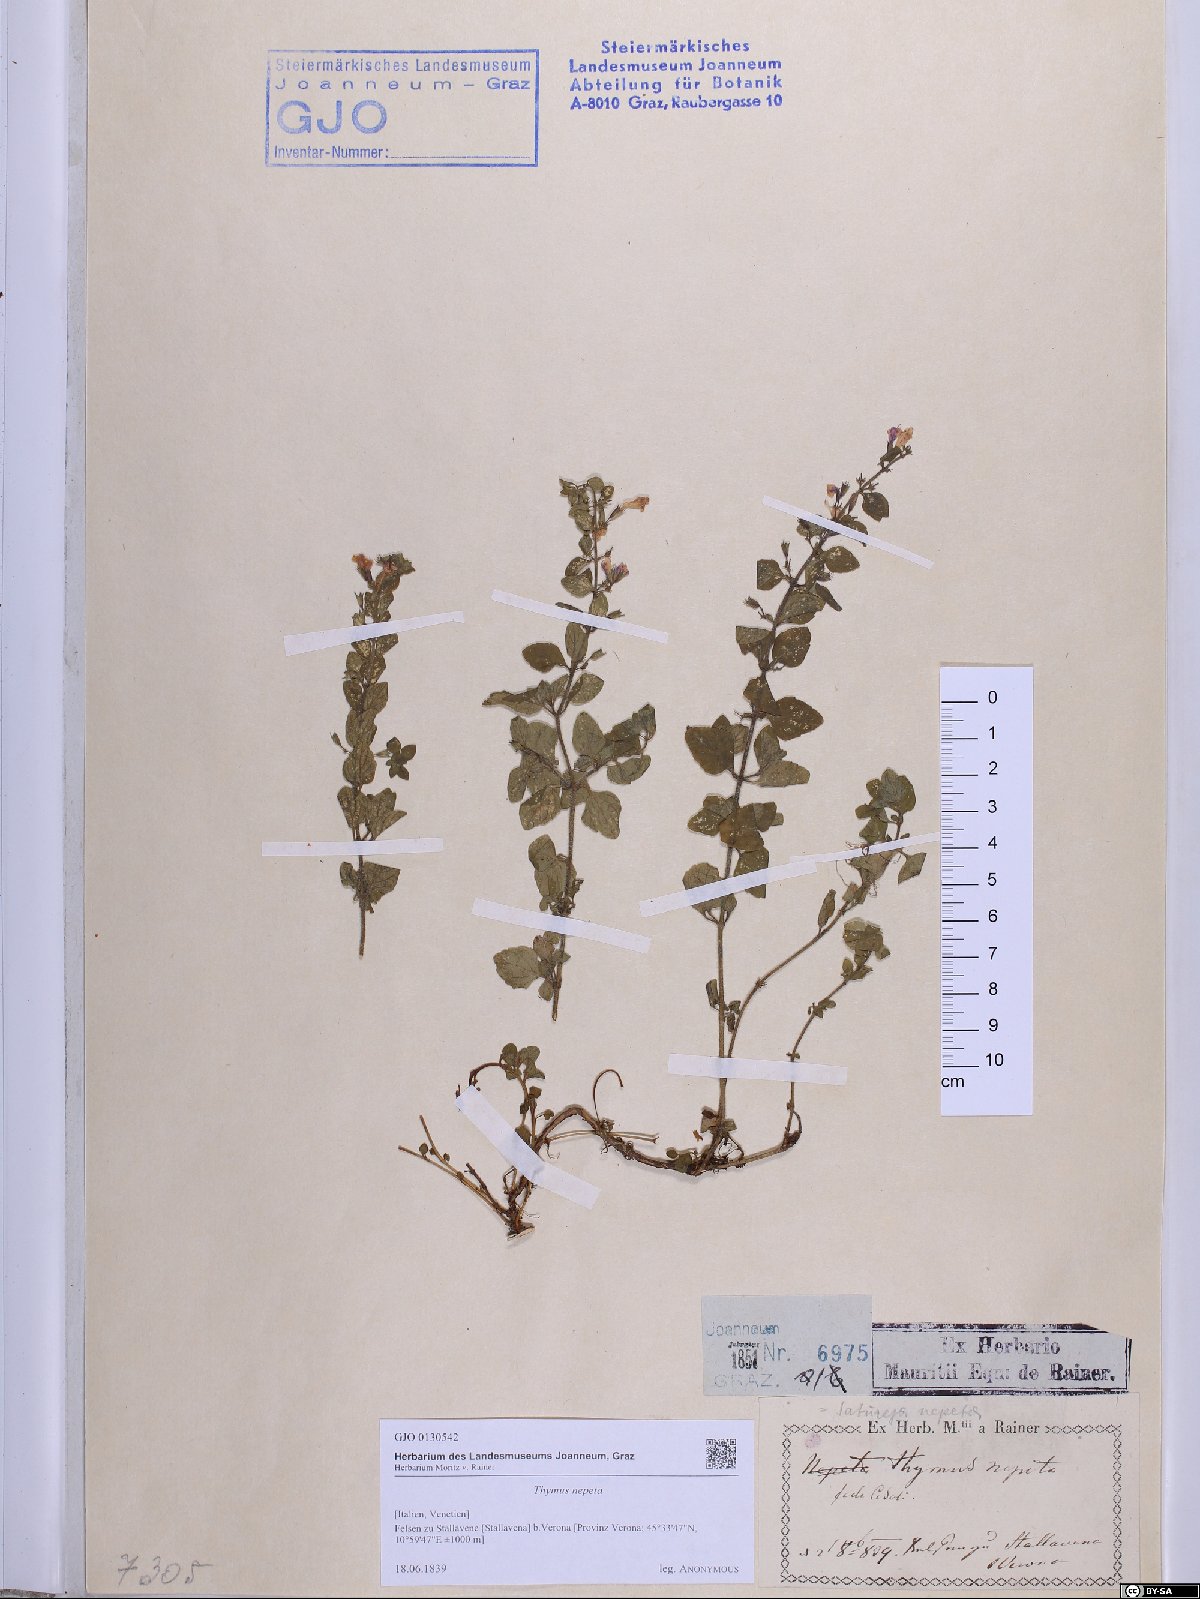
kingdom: Plantae
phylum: Tracheophyta
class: Magnoliopsida
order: Lamiales
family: Lamiaceae
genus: Clinopodium
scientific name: Clinopodium nepeta
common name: Lesser calamint
